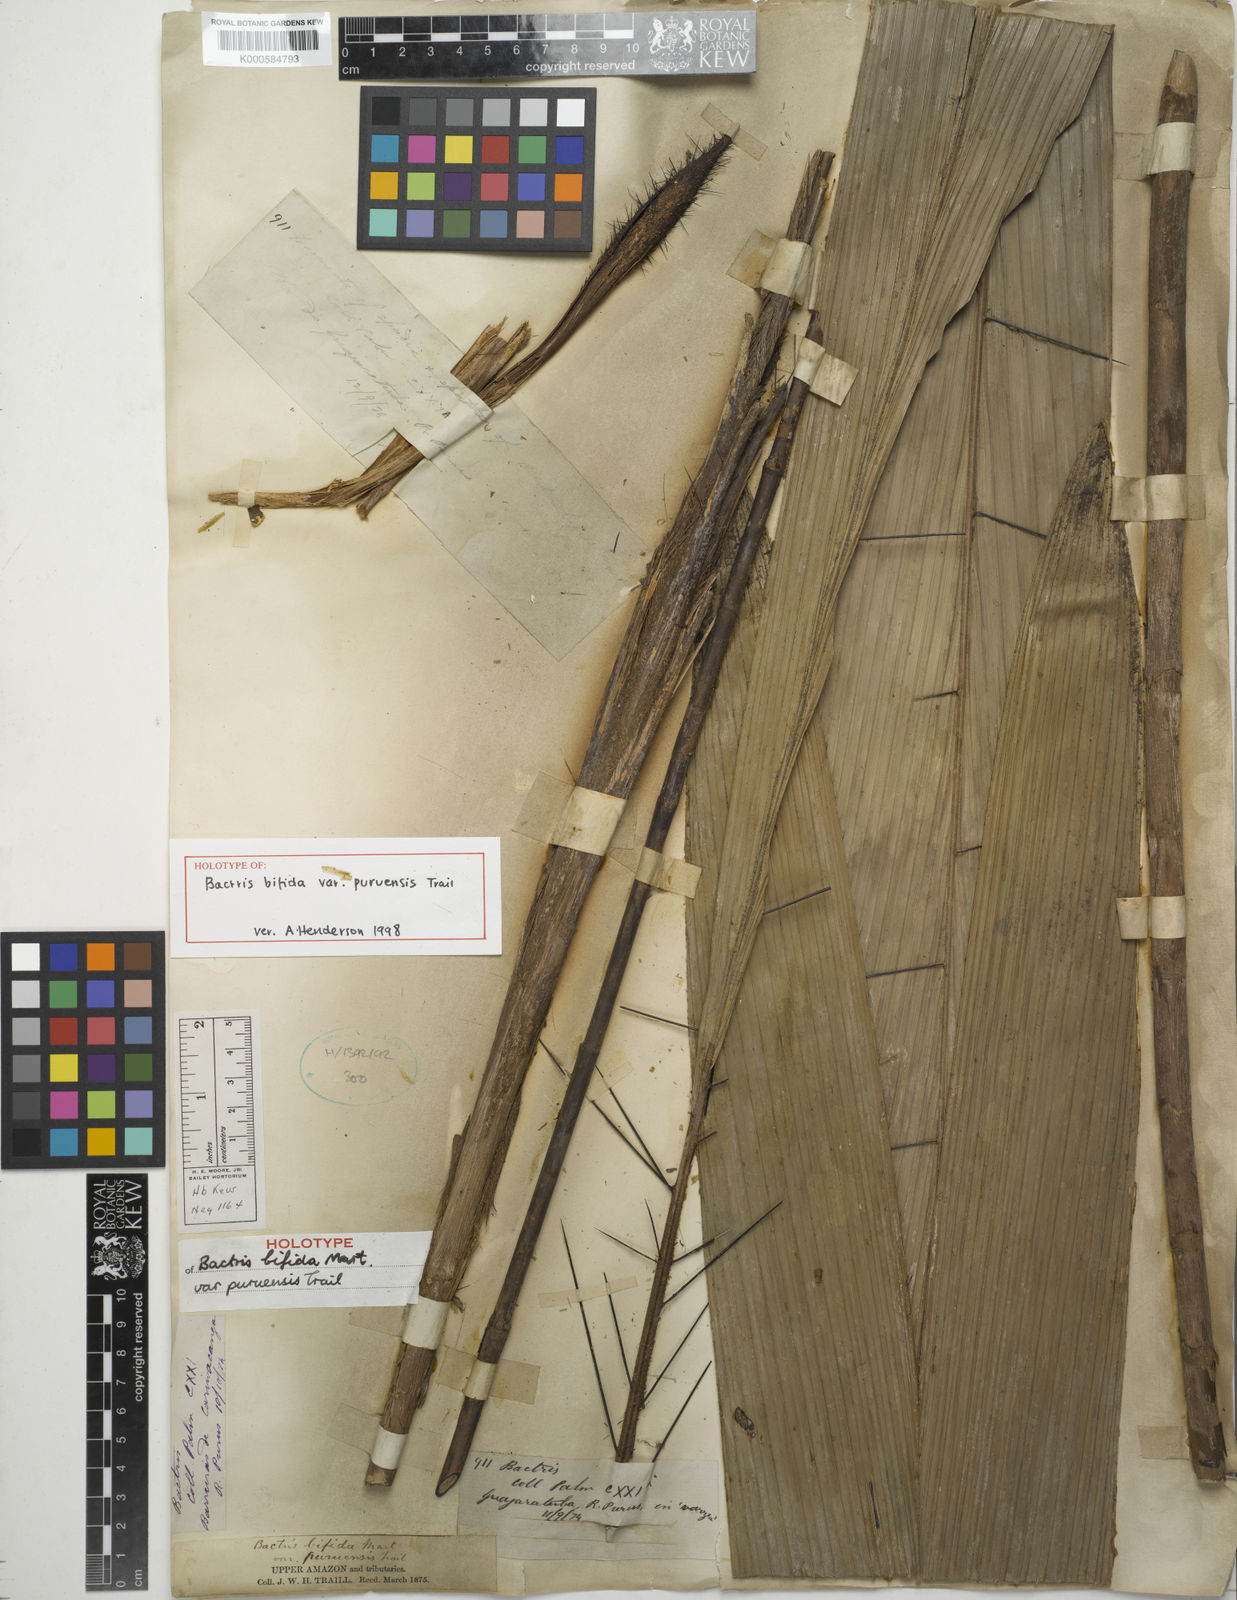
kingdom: Plantae
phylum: Tracheophyta
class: Liliopsida
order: Arecales
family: Arecaceae
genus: Bactris
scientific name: Bactris bifida
